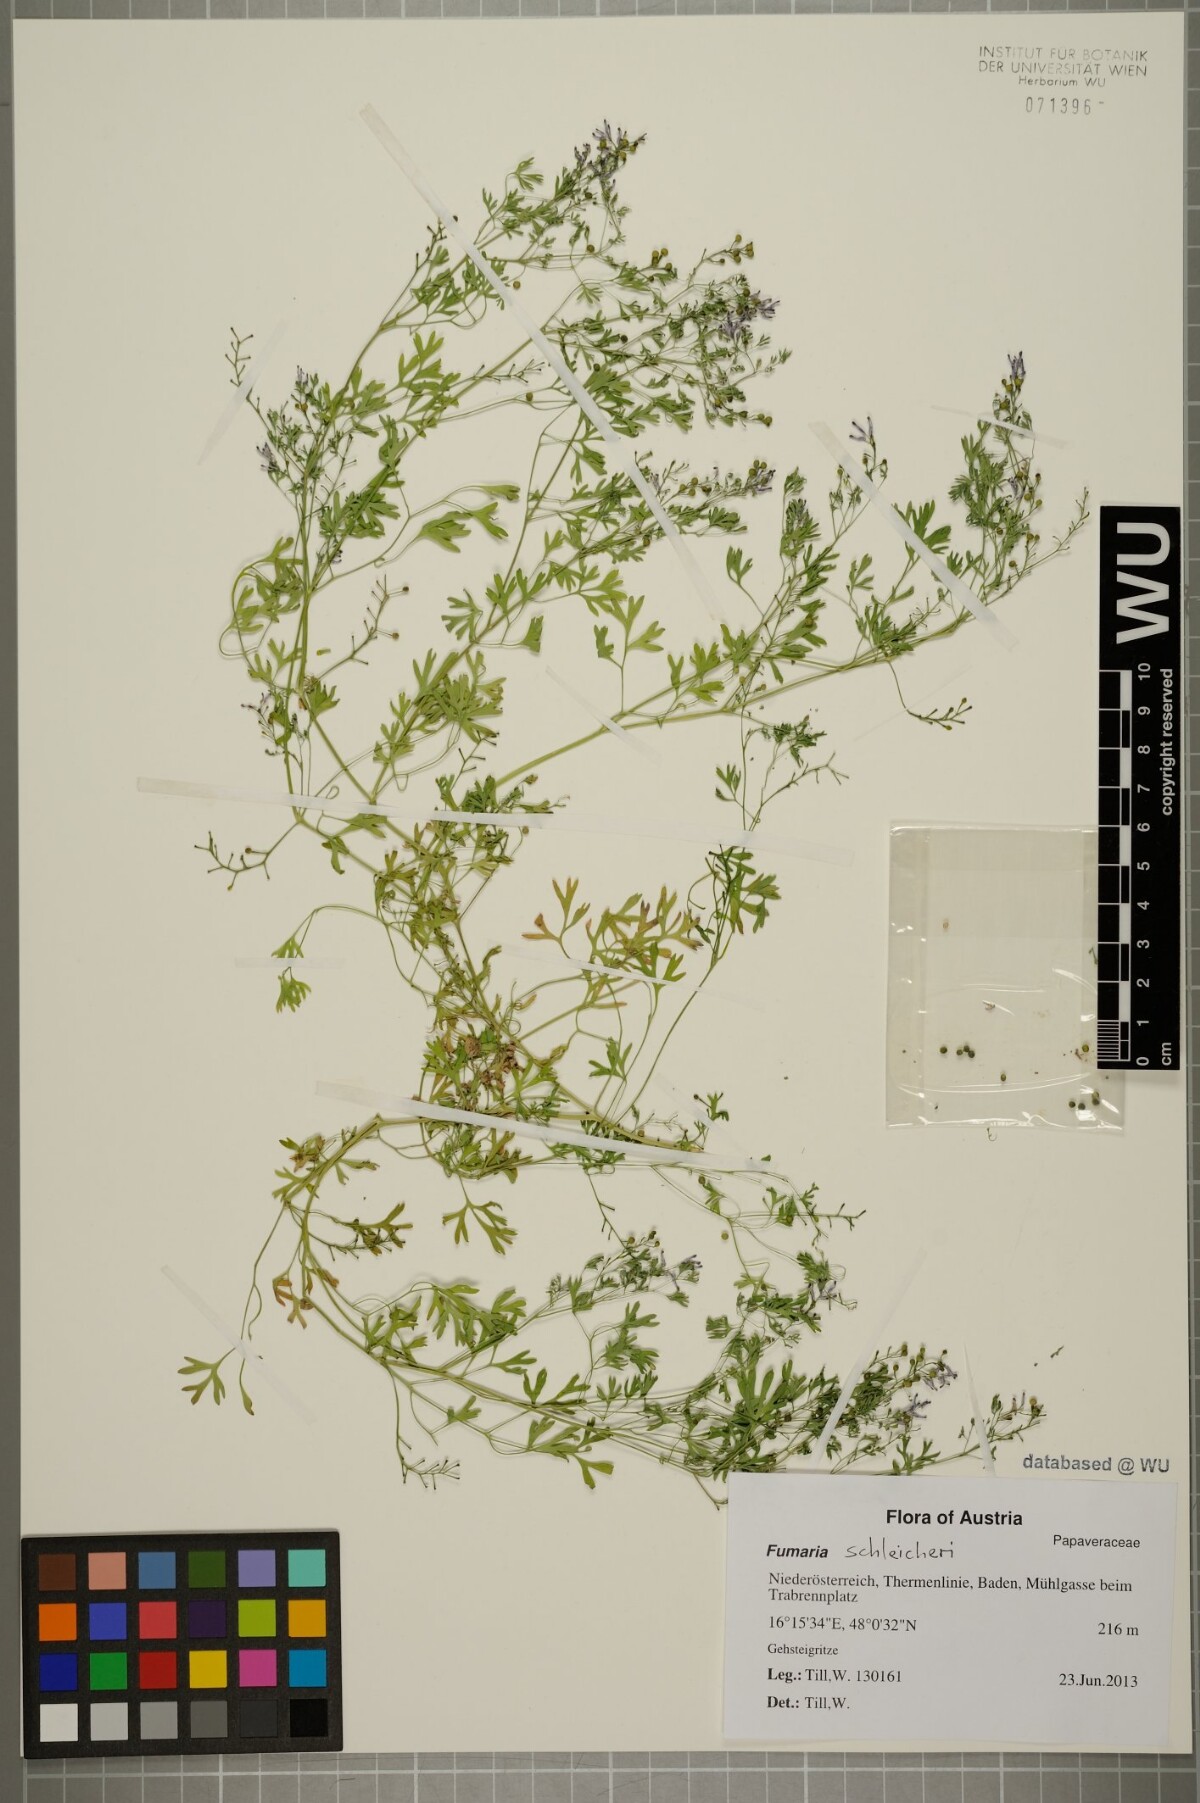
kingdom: Plantae
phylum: Tracheophyta
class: Magnoliopsida
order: Ranunculales
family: Papaveraceae
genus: Fumaria
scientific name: Fumaria schleicheri
